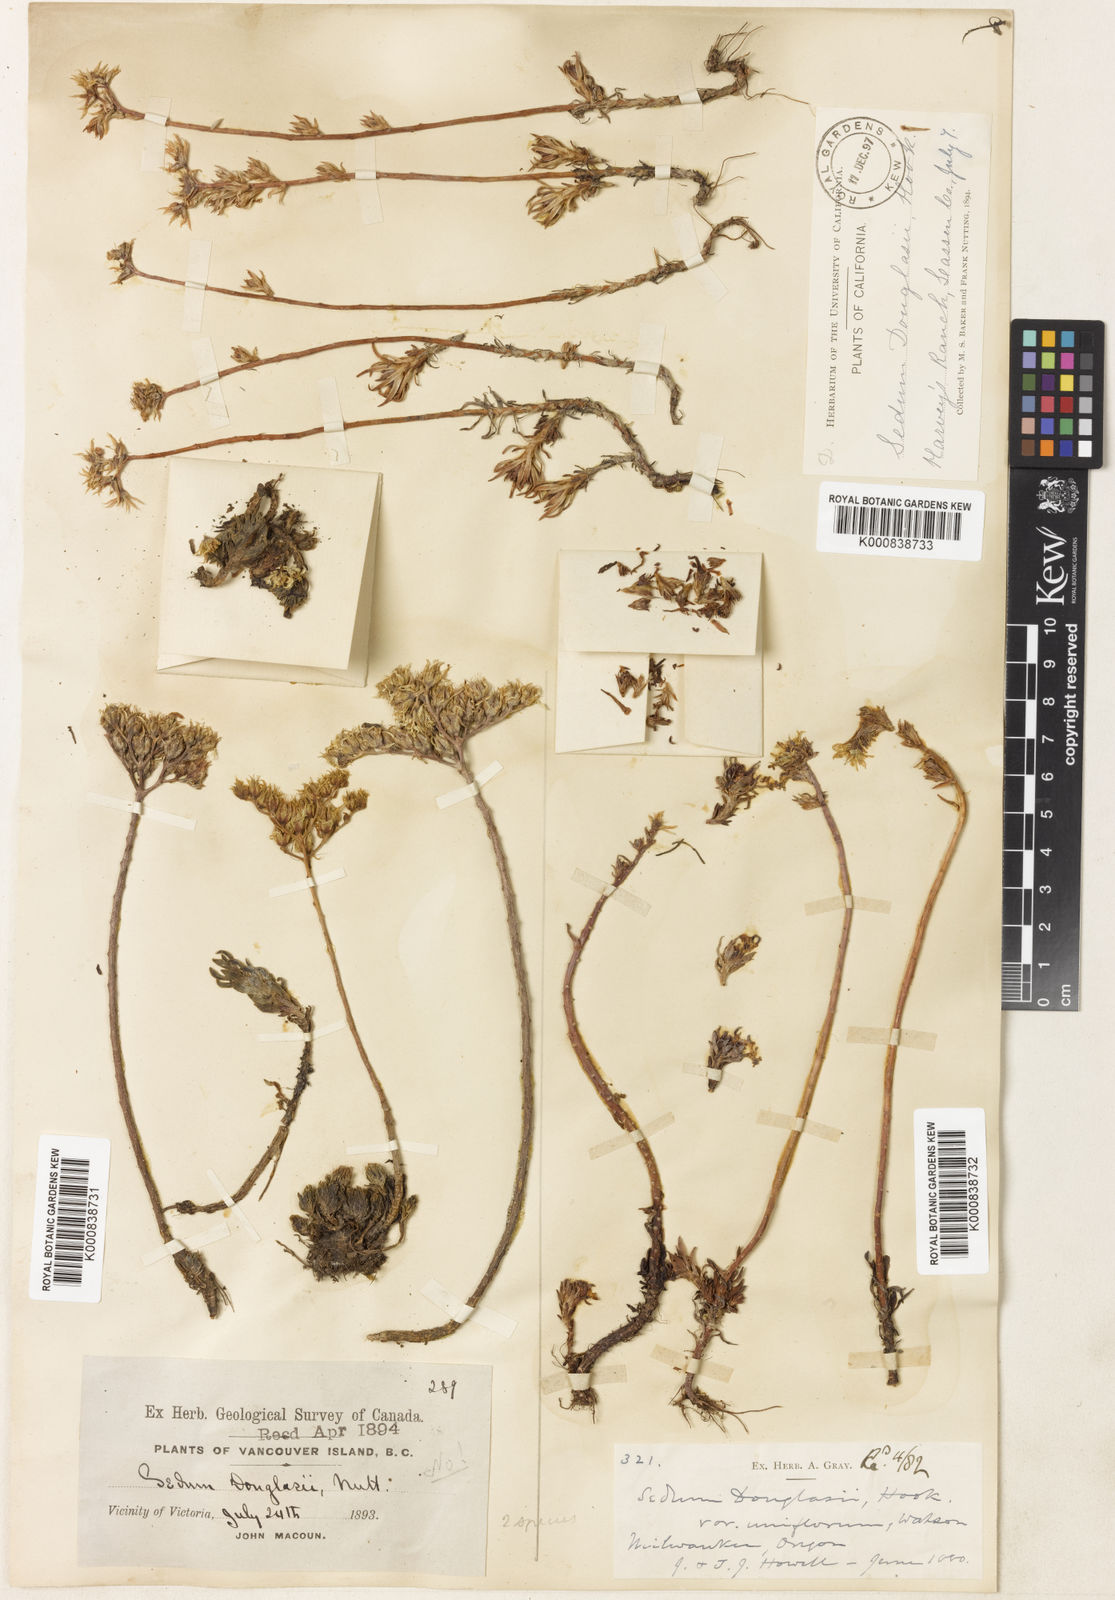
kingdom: Plantae
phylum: Tracheophyta
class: Magnoliopsida
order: Saxifragales
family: Crassulaceae
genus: Sedum
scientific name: Sedum stenopetalum
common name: Narrow-petaled stonecrop
